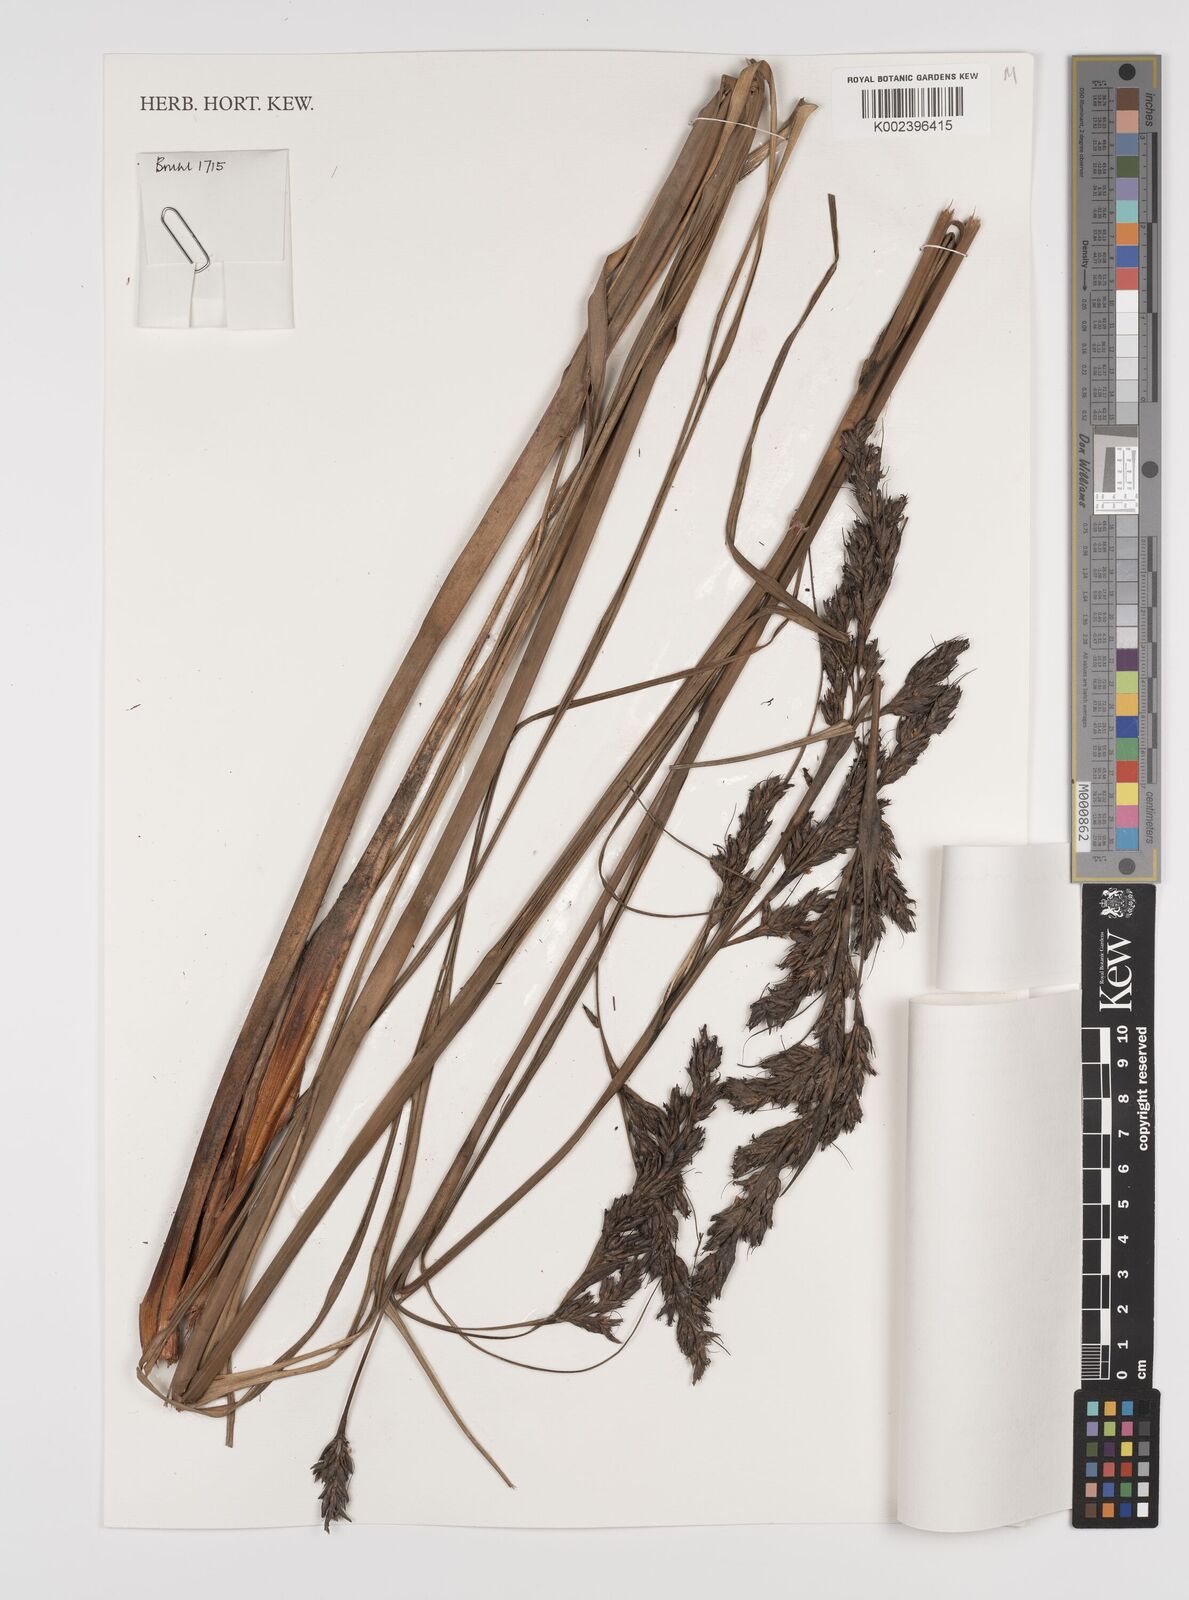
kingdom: Plantae
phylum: Tracheophyta
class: Liliopsida
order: Poales
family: Cyperaceae
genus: Tetraria
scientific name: Tetraria
